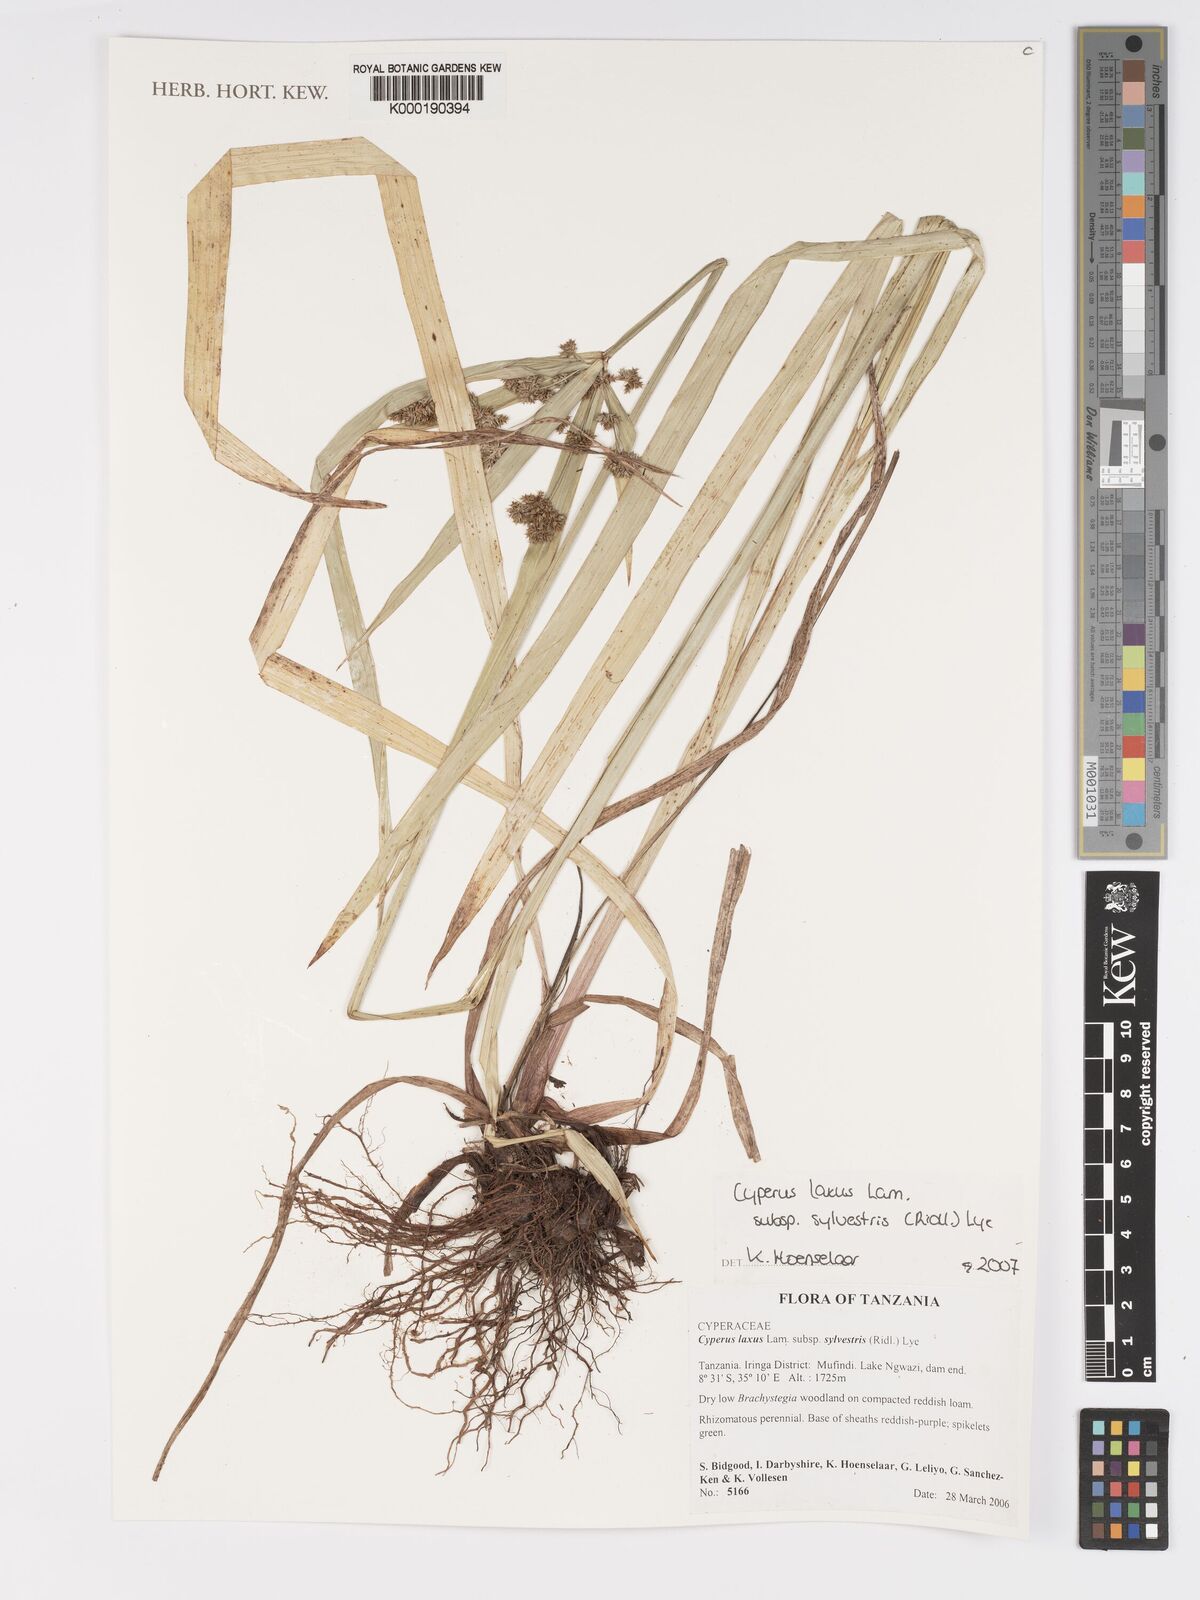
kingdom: Plantae
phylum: Tracheophyta
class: Liliopsida
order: Poales
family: Cyperaceae
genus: Cyperus
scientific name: Cyperus sylvestris
